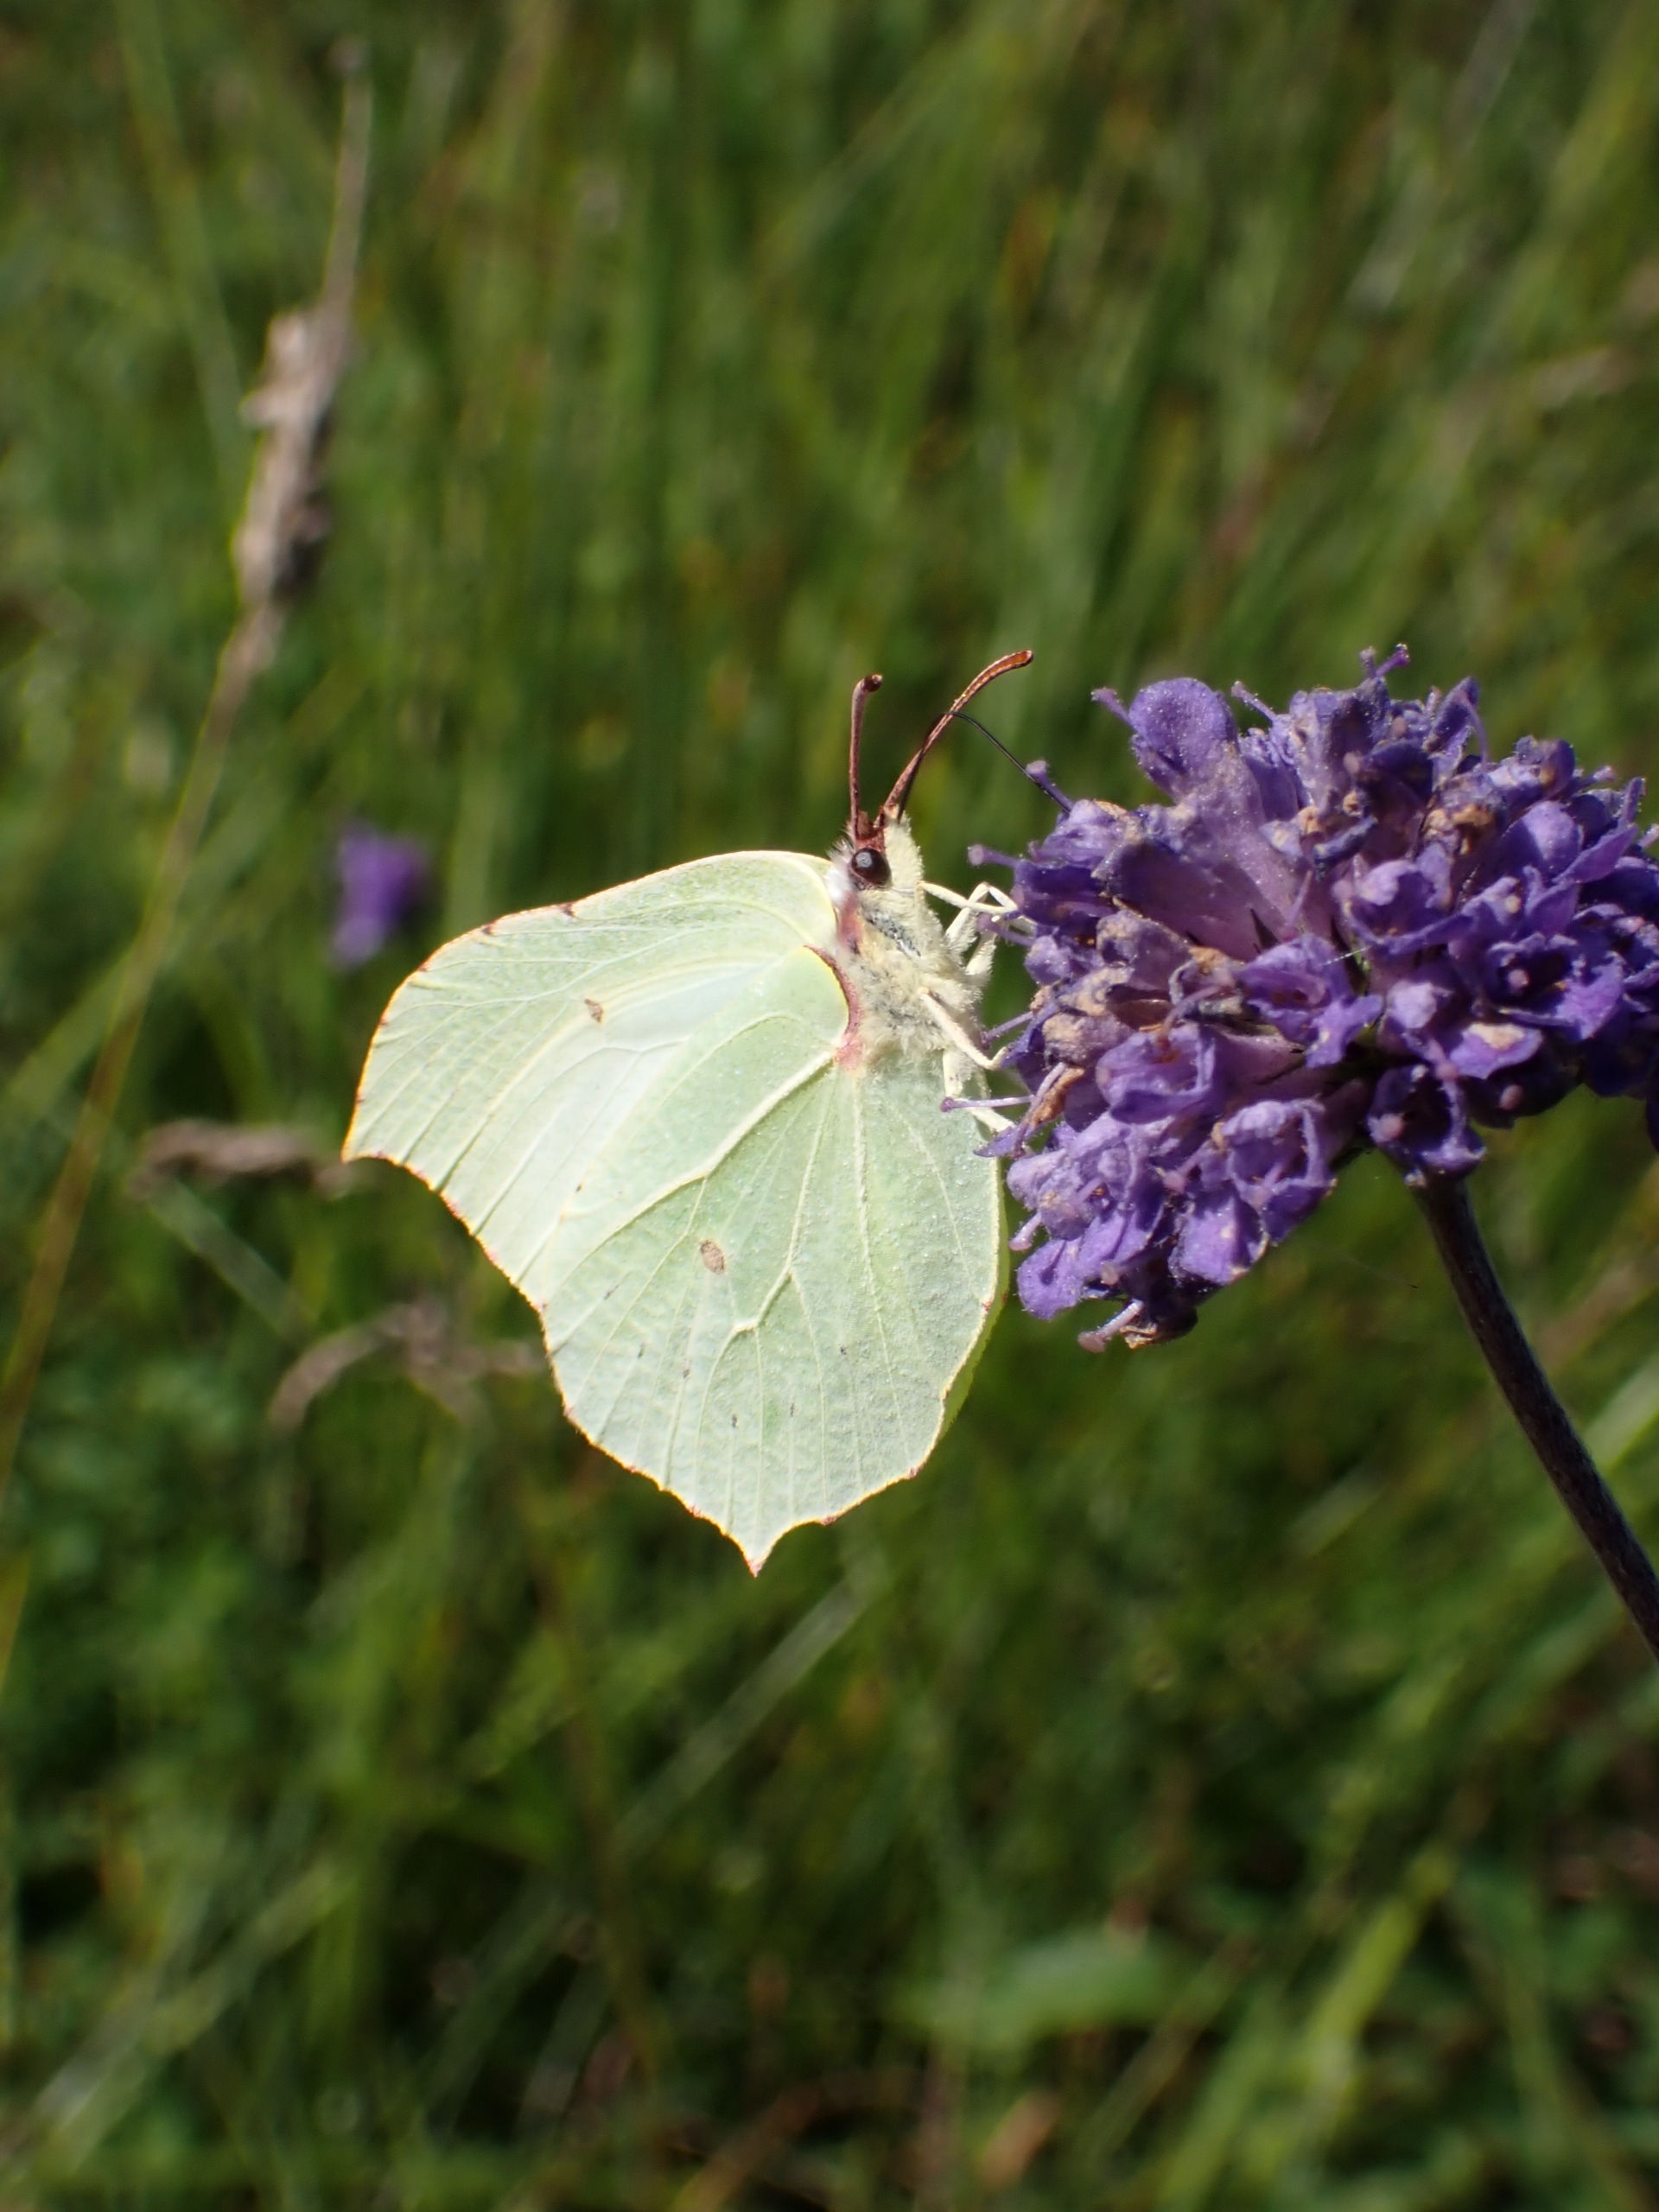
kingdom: Animalia
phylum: Arthropoda
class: Insecta
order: Lepidoptera
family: Pieridae
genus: Gonepteryx
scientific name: Gonepteryx rhamni
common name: Citronsommerfugl
